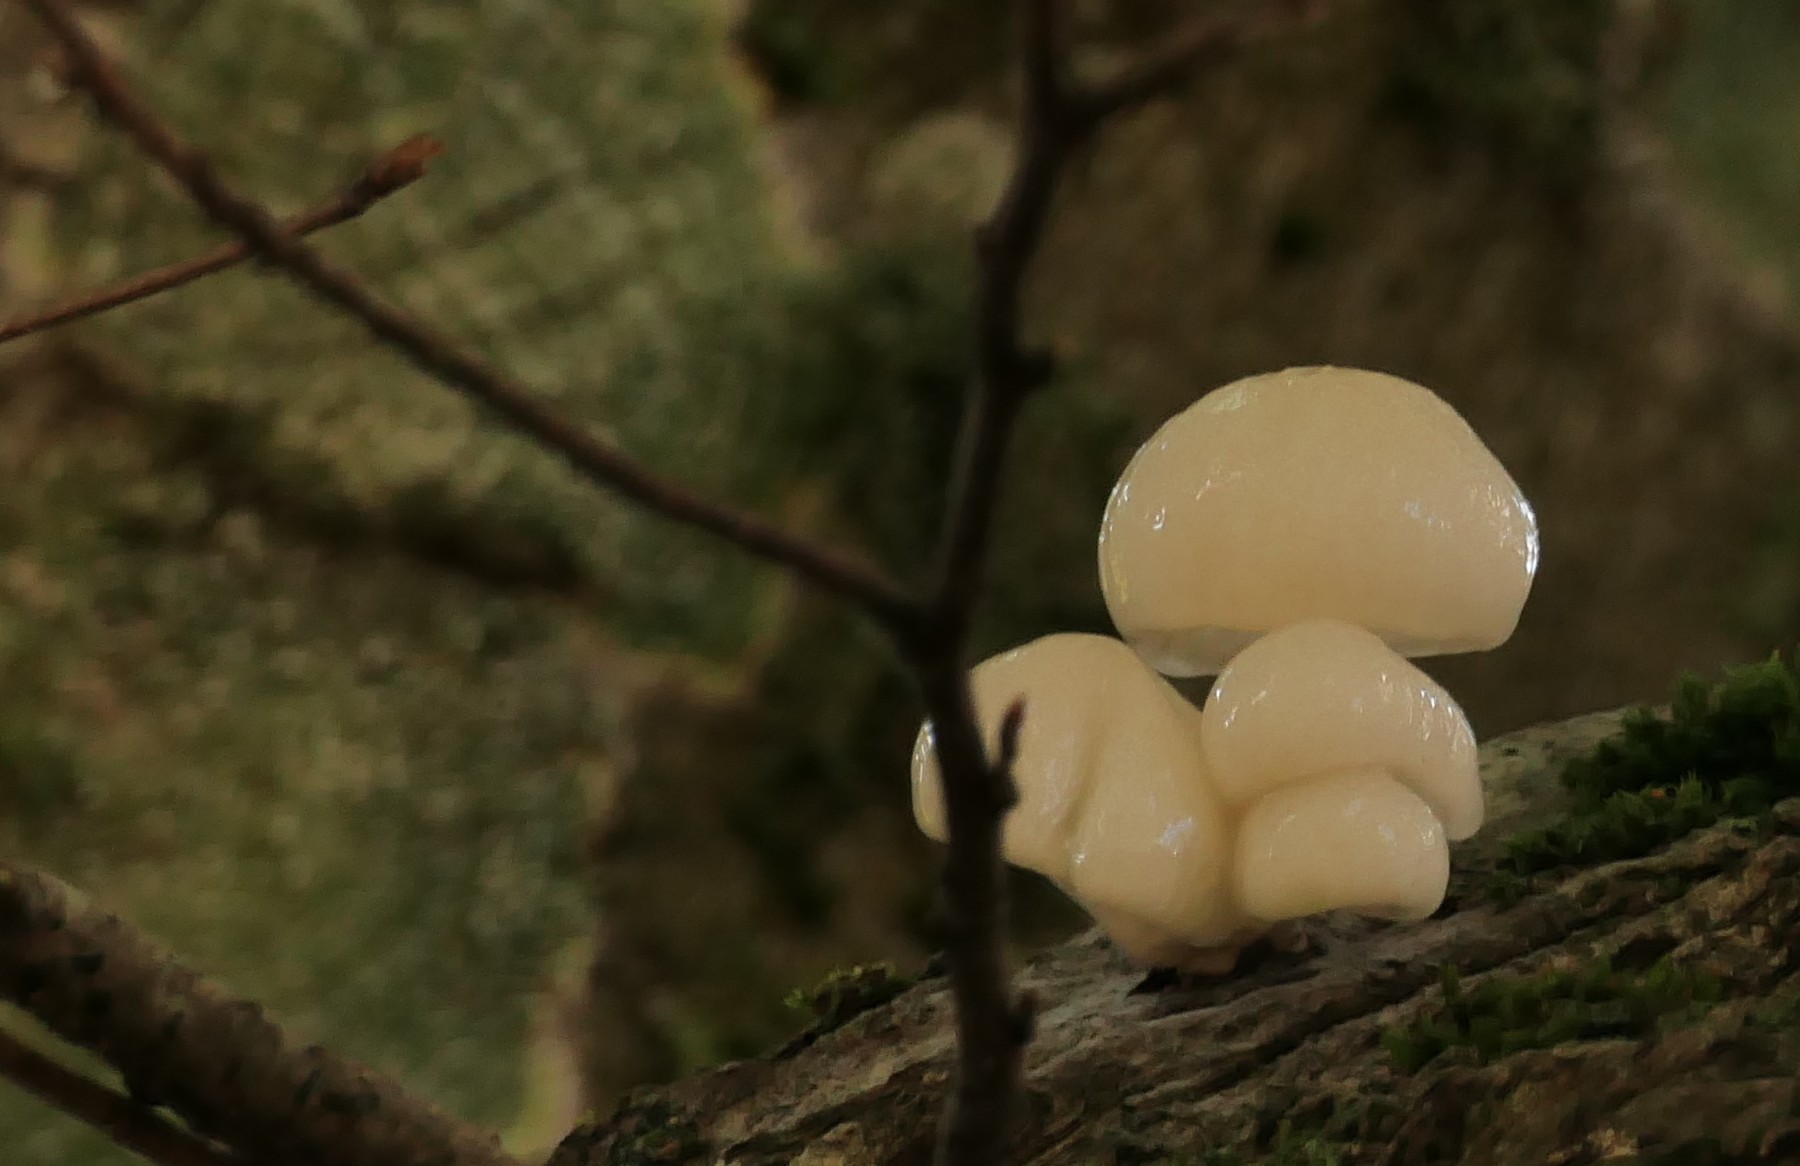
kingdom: Fungi
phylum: Basidiomycota
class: Agaricomycetes
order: Agaricales
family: Physalacriaceae
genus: Mucidula
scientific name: Mucidula mucida
